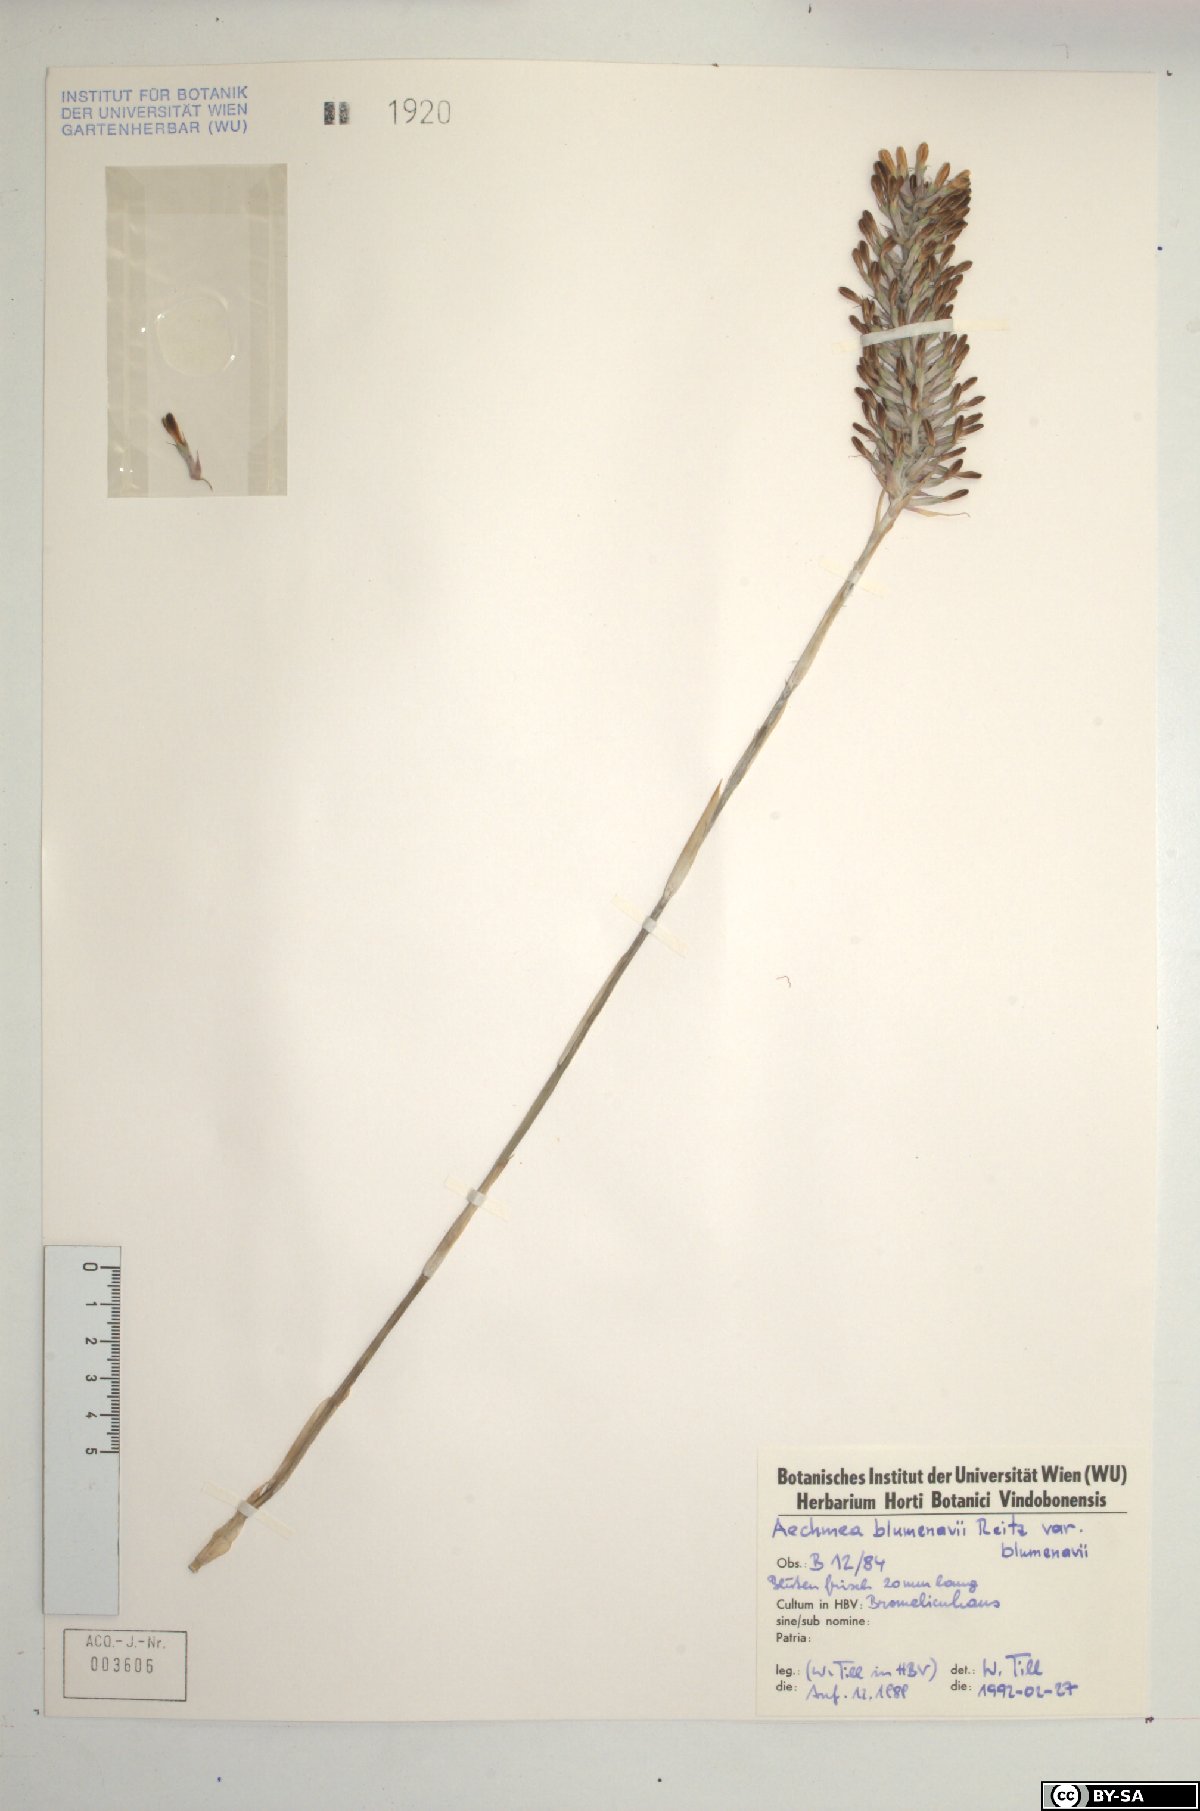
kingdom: Plantae
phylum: Tracheophyta
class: Liliopsida
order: Poales
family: Bromeliaceae
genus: Aechmea
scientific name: Aechmea blumenavii
